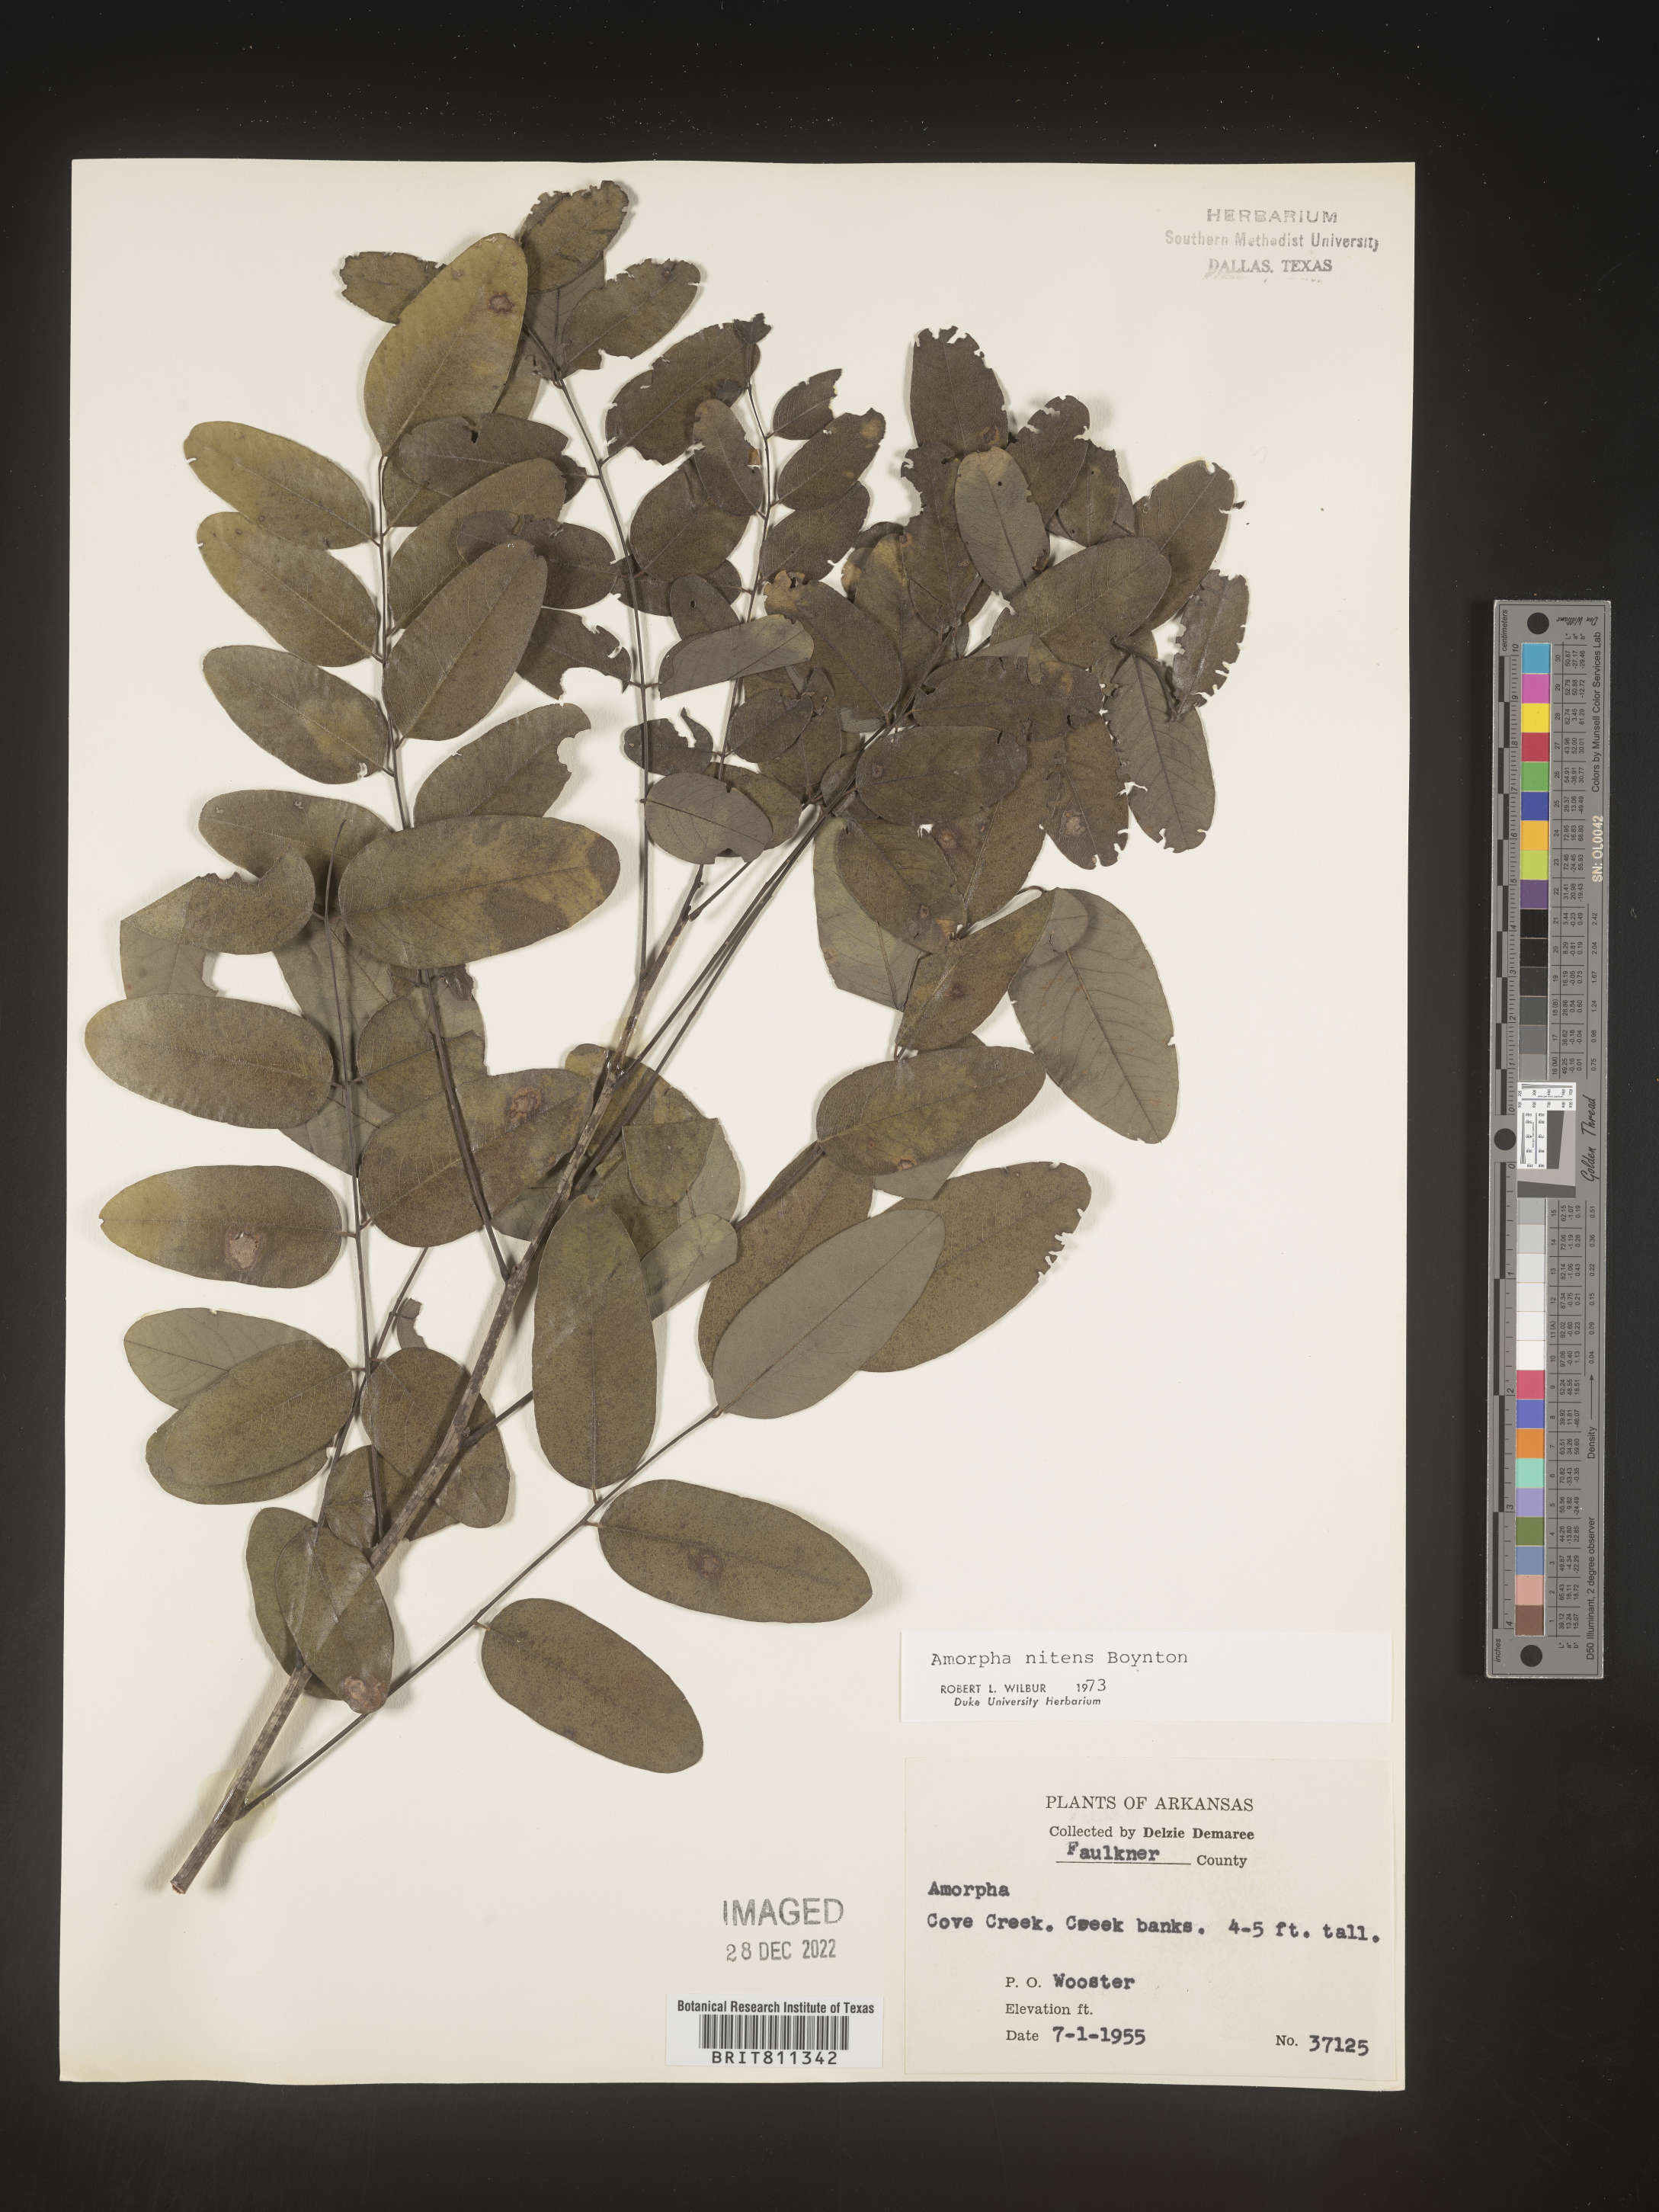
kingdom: Plantae
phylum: Tracheophyta
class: Magnoliopsida
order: Fabales
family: Fabaceae
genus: Amorpha
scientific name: Amorpha nitens
